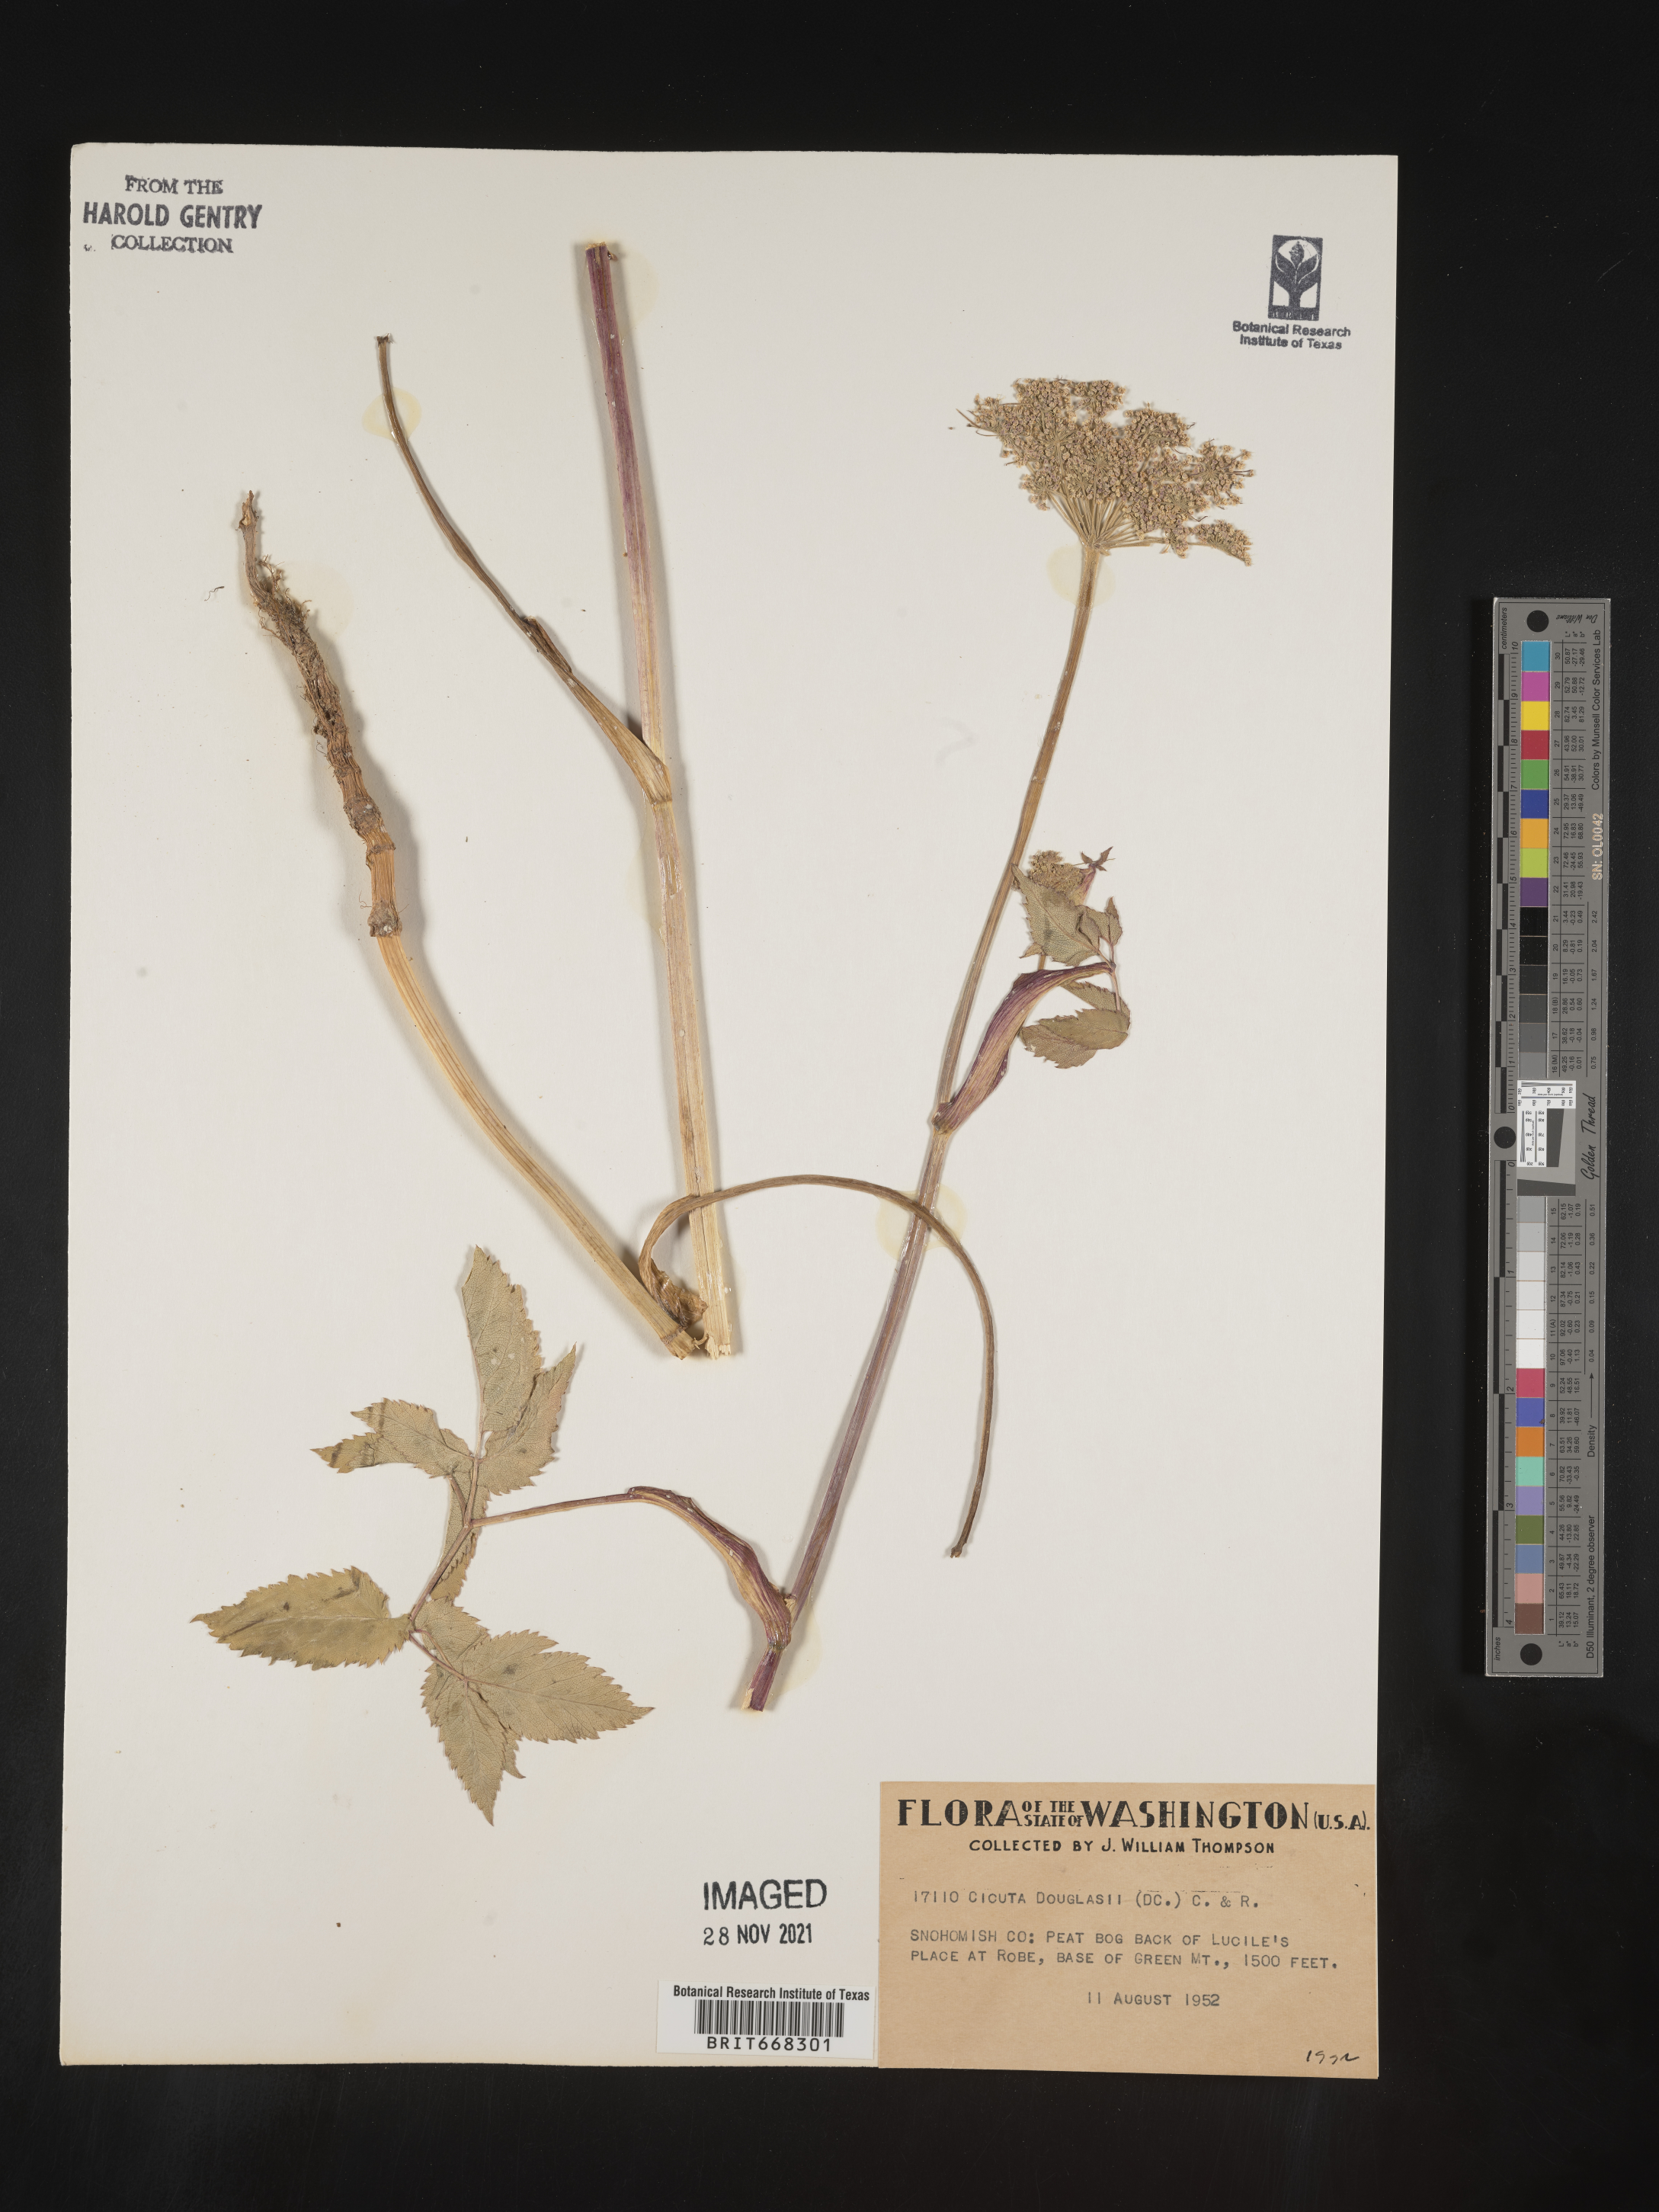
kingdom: Plantae
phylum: Tracheophyta
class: Magnoliopsida
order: Apiales
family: Apiaceae
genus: Cicuta
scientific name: Cicuta
